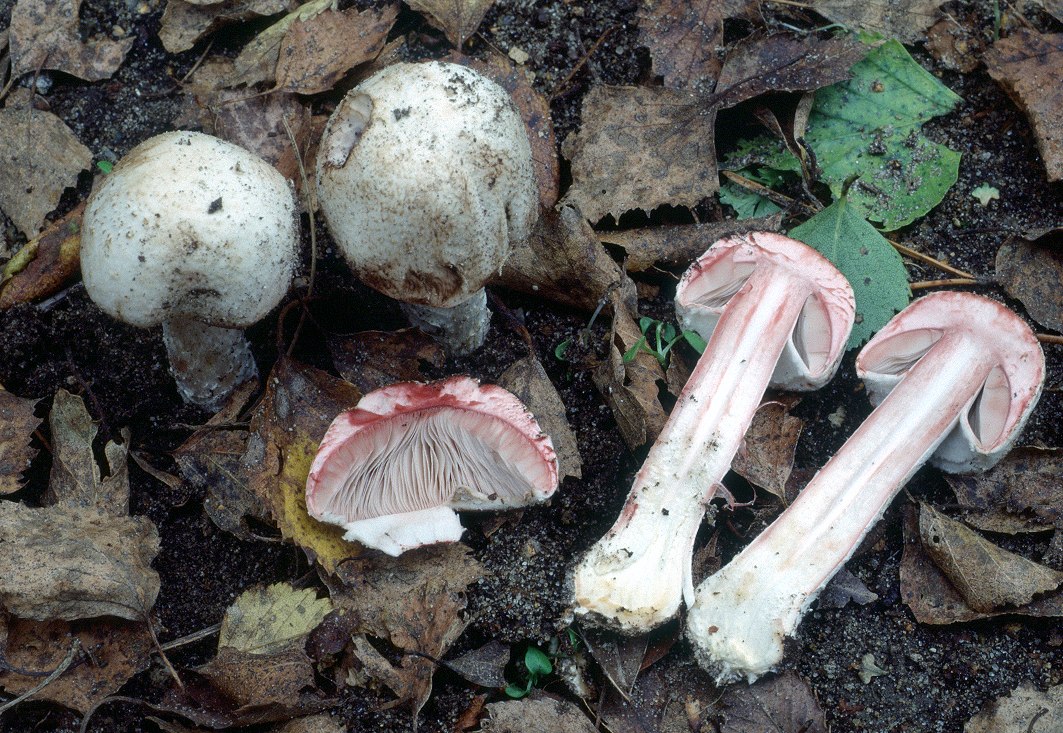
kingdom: Fungi
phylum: Basidiomycota
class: Agaricomycetes
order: Agaricales
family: Agaricaceae
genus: Agaricus
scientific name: Agaricus benesii
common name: hvid blod-champignon
